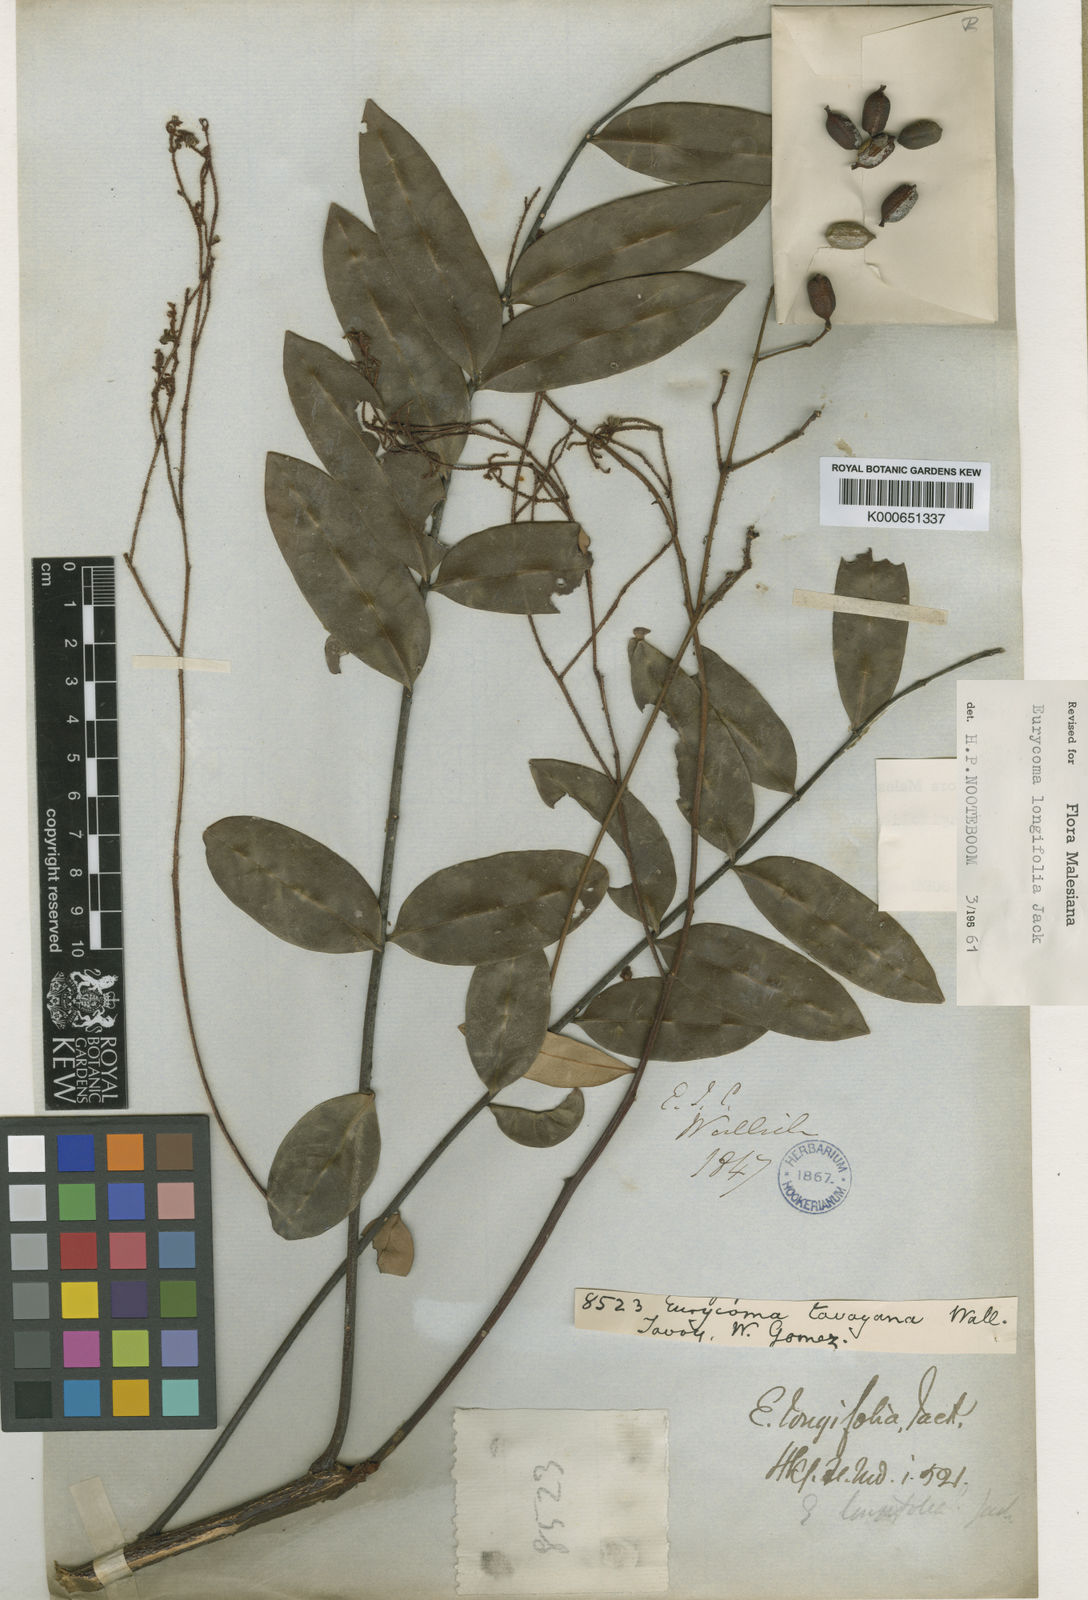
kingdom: Plantae
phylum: Tracheophyta
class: Magnoliopsida
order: Sapindales
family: Simaroubaceae
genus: Eurycoma
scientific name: Eurycoma longifolia
